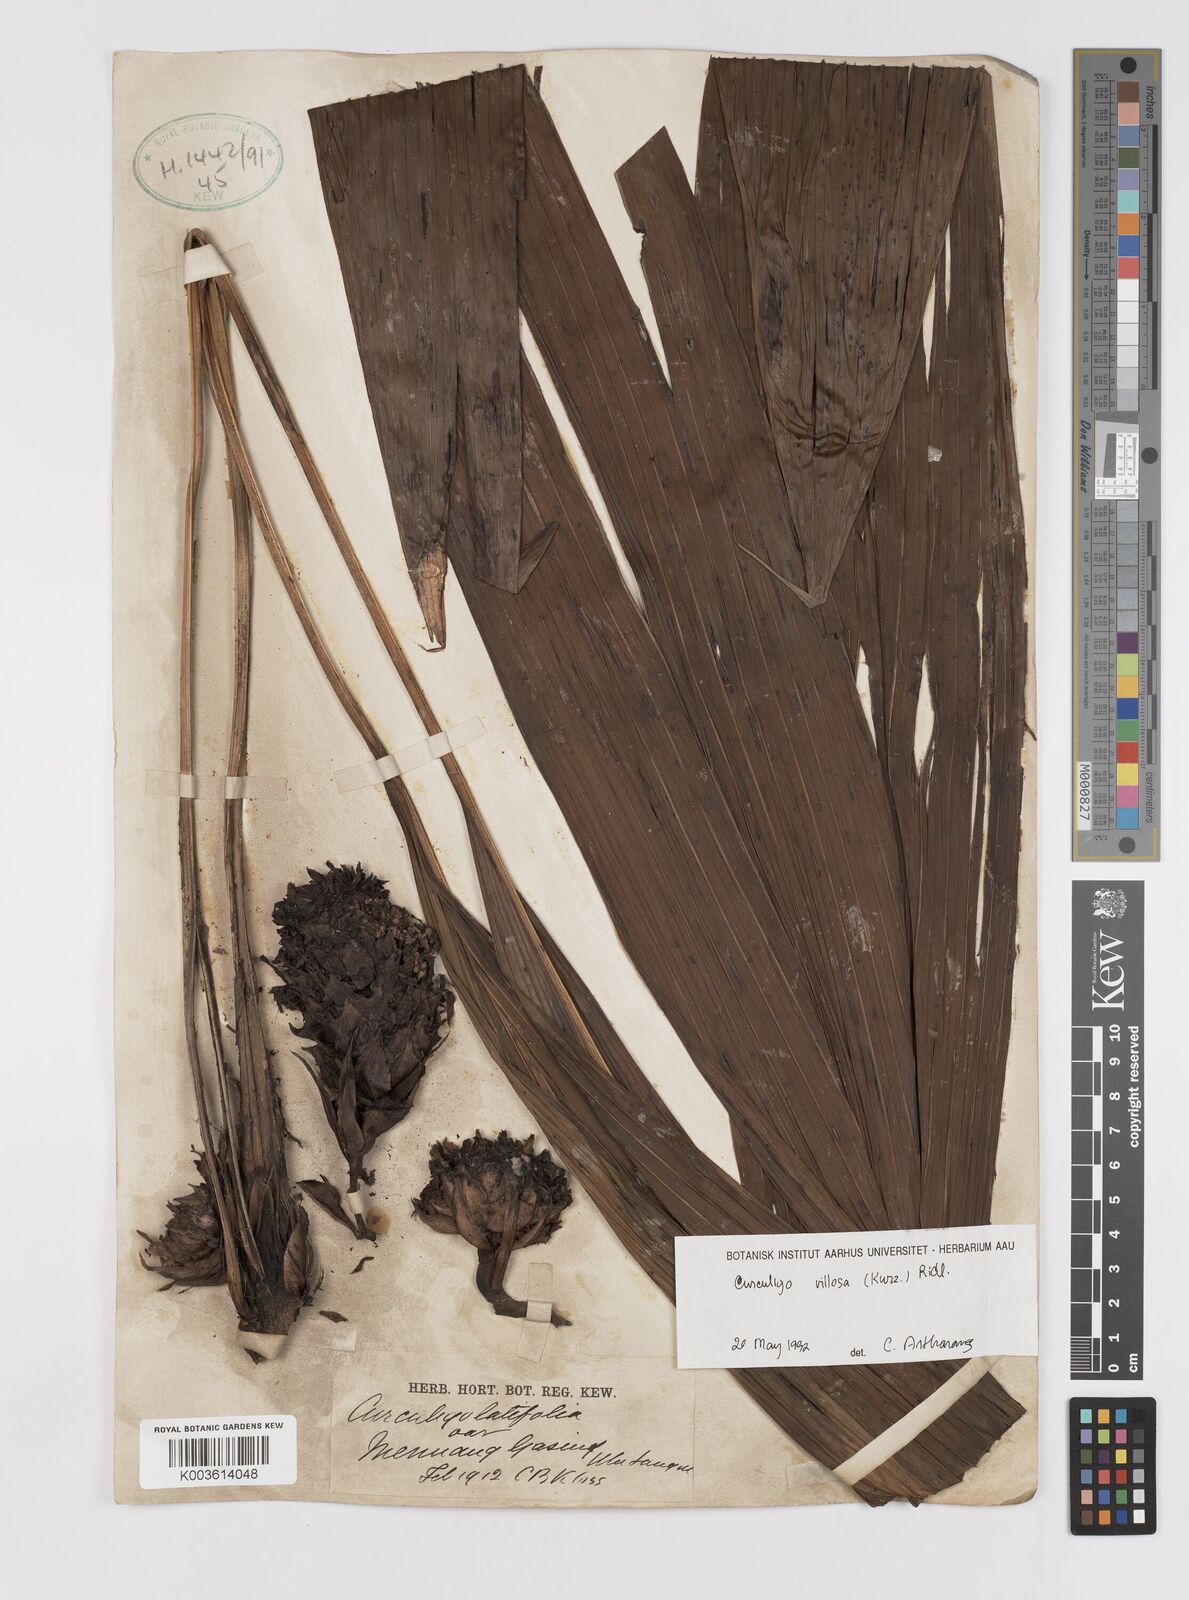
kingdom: Plantae
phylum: Tracheophyta
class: Liliopsida
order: Asparagales
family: Hypoxidaceae
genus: Curculigo
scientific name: Curculigo
